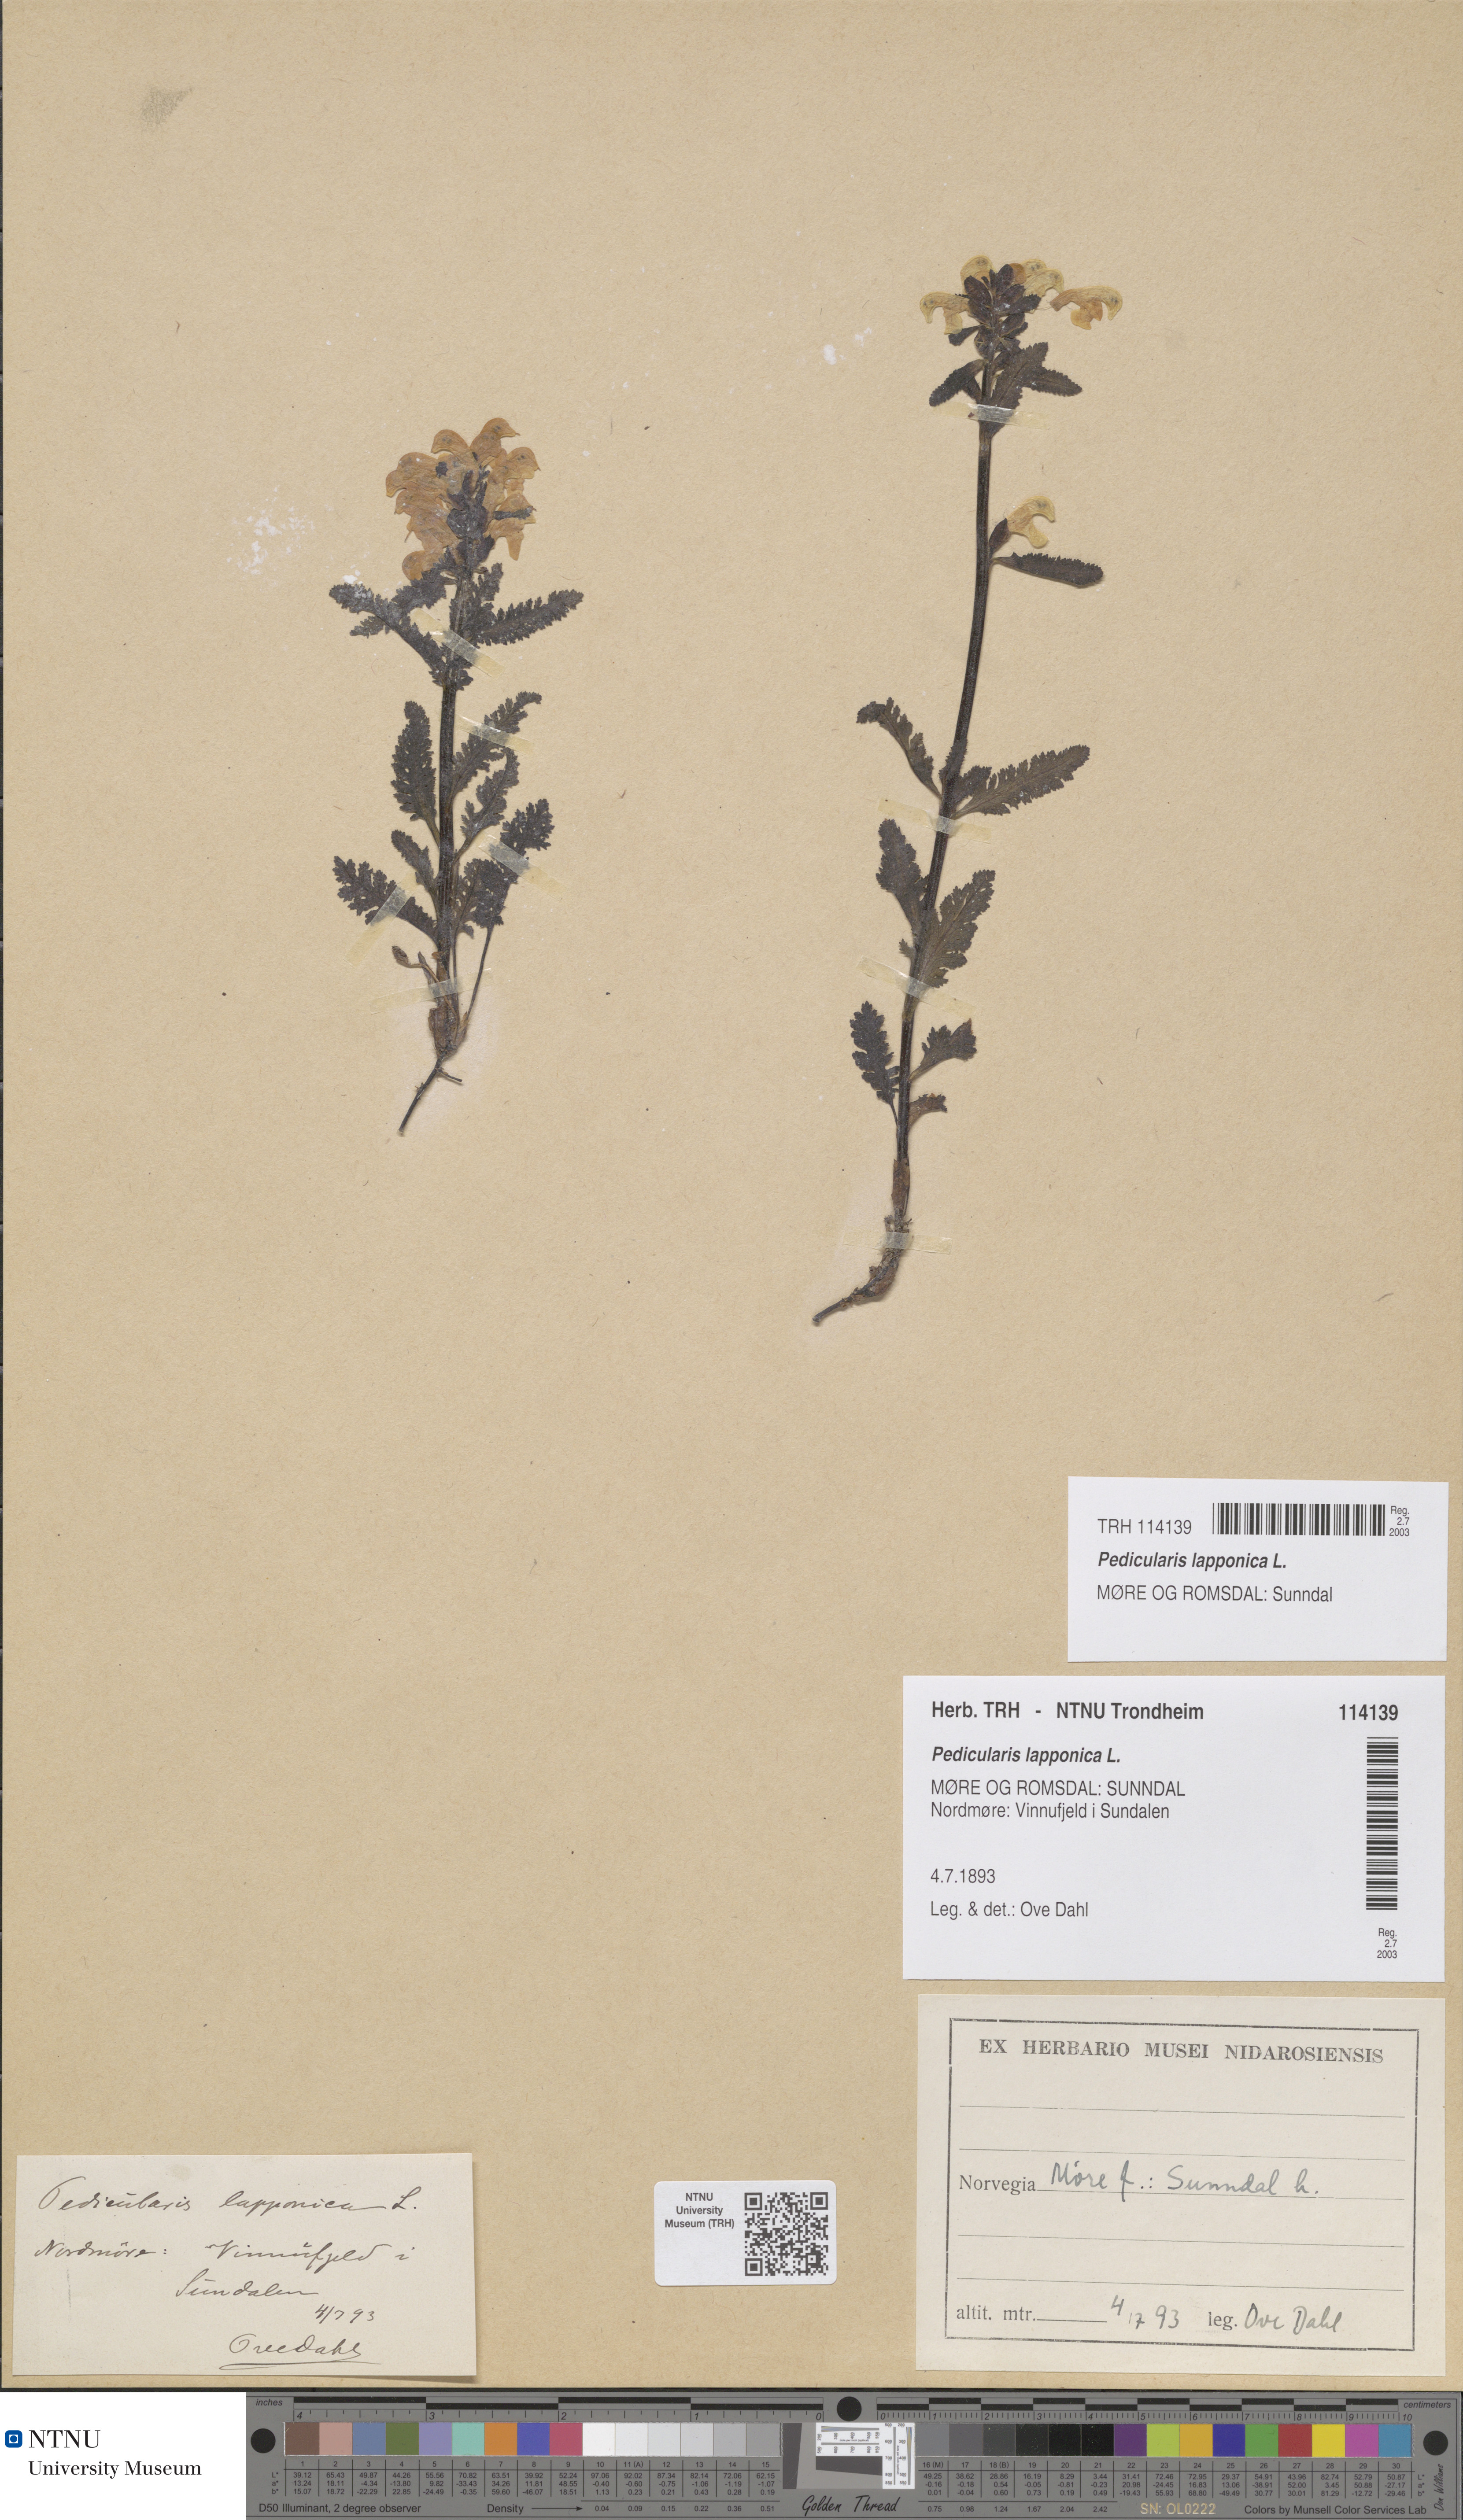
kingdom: Plantae
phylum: Tracheophyta
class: Magnoliopsida
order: Lamiales
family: Orobanchaceae
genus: Pedicularis
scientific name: Pedicularis lapponica
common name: Lapland lousewort
